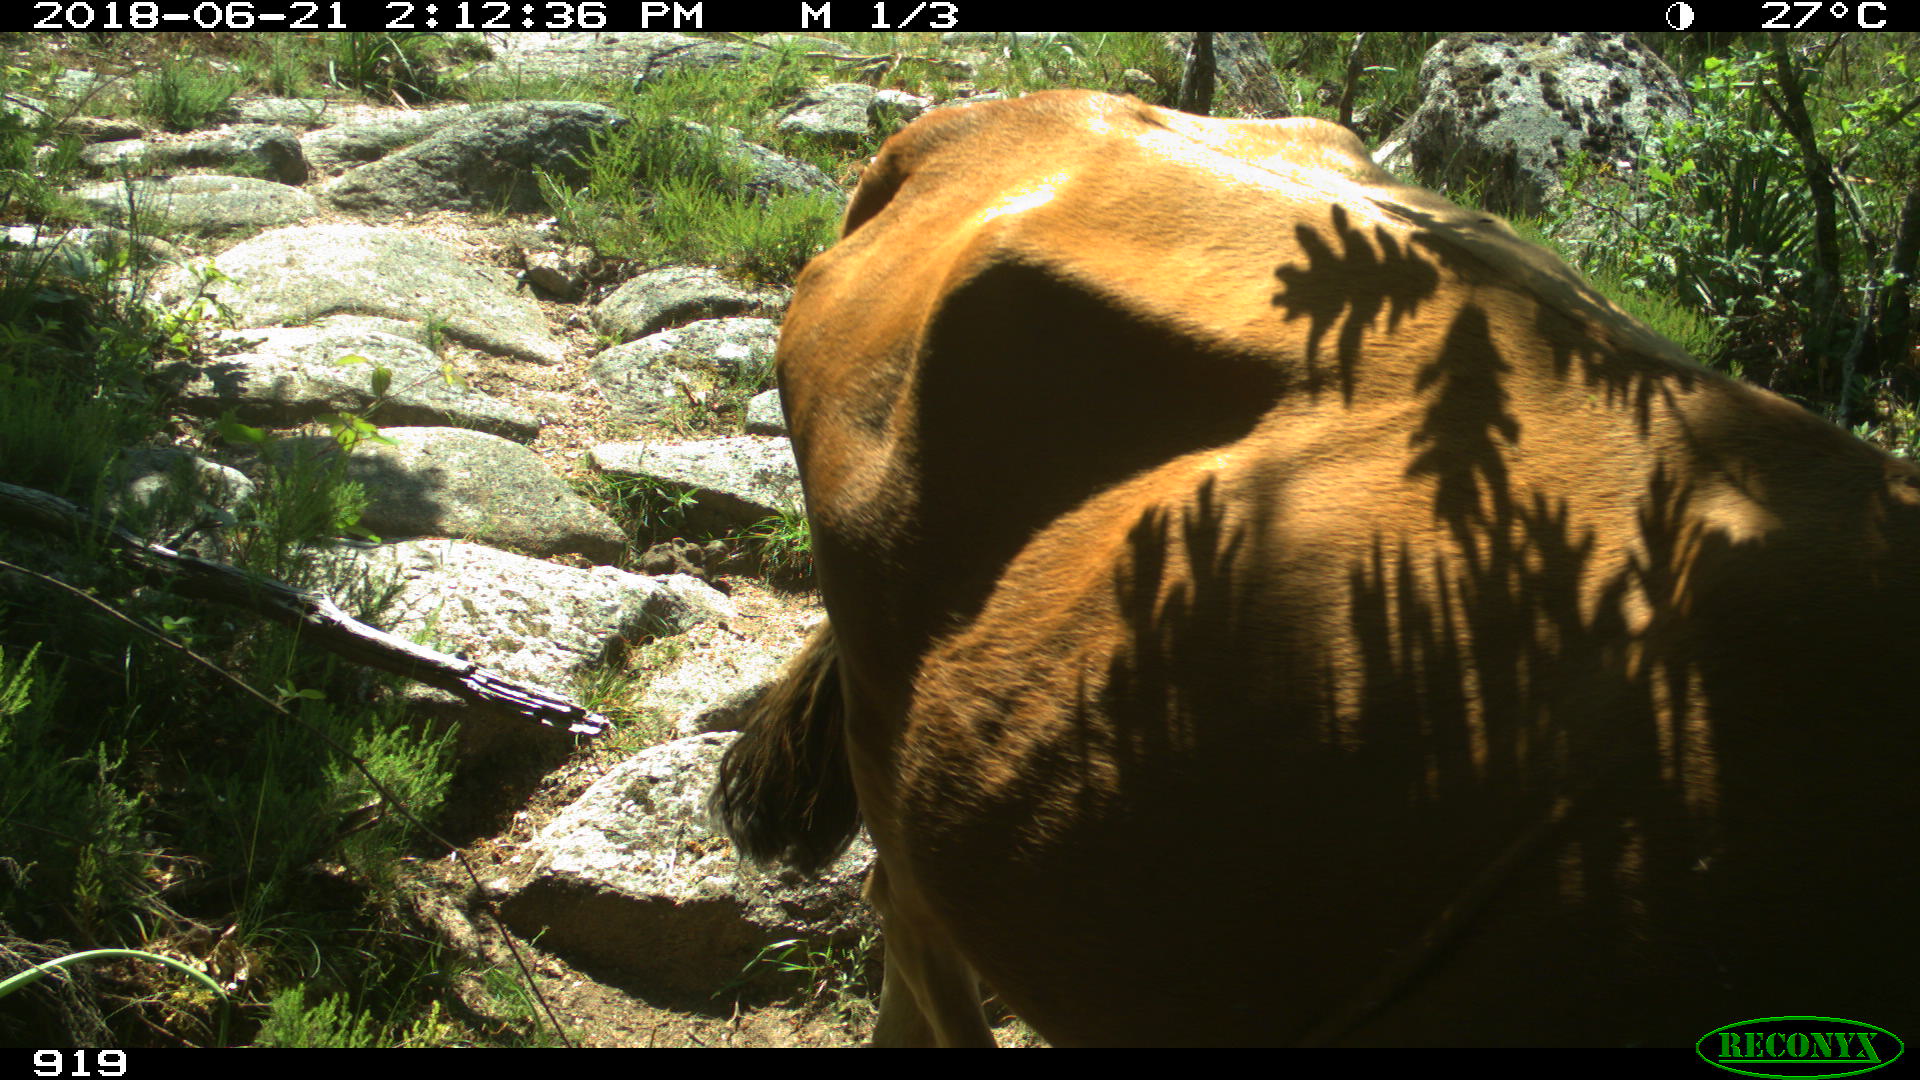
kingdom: Animalia
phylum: Chordata
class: Mammalia
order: Artiodactyla
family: Bovidae
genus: Bos
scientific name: Bos taurus
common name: Domesticated cattle
